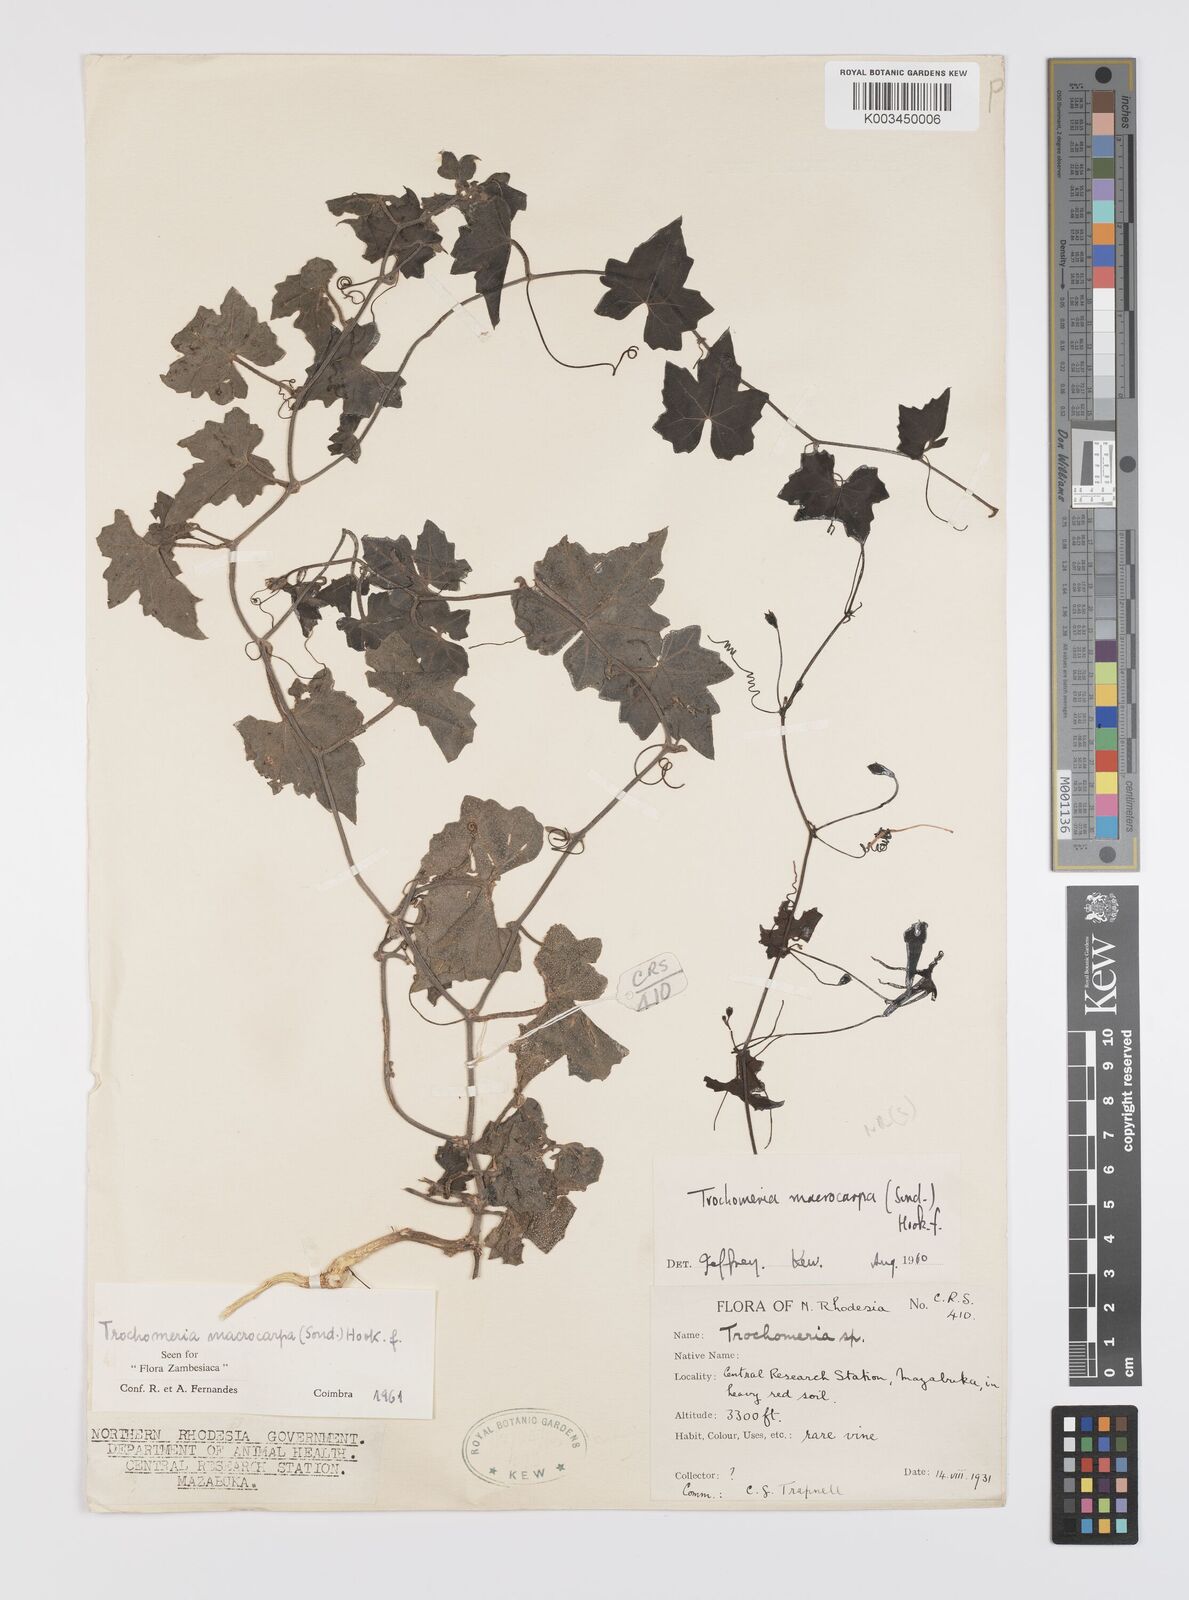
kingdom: Plantae
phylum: Tracheophyta
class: Magnoliopsida
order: Cucurbitales
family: Cucurbitaceae
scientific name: Cucurbitaceae
